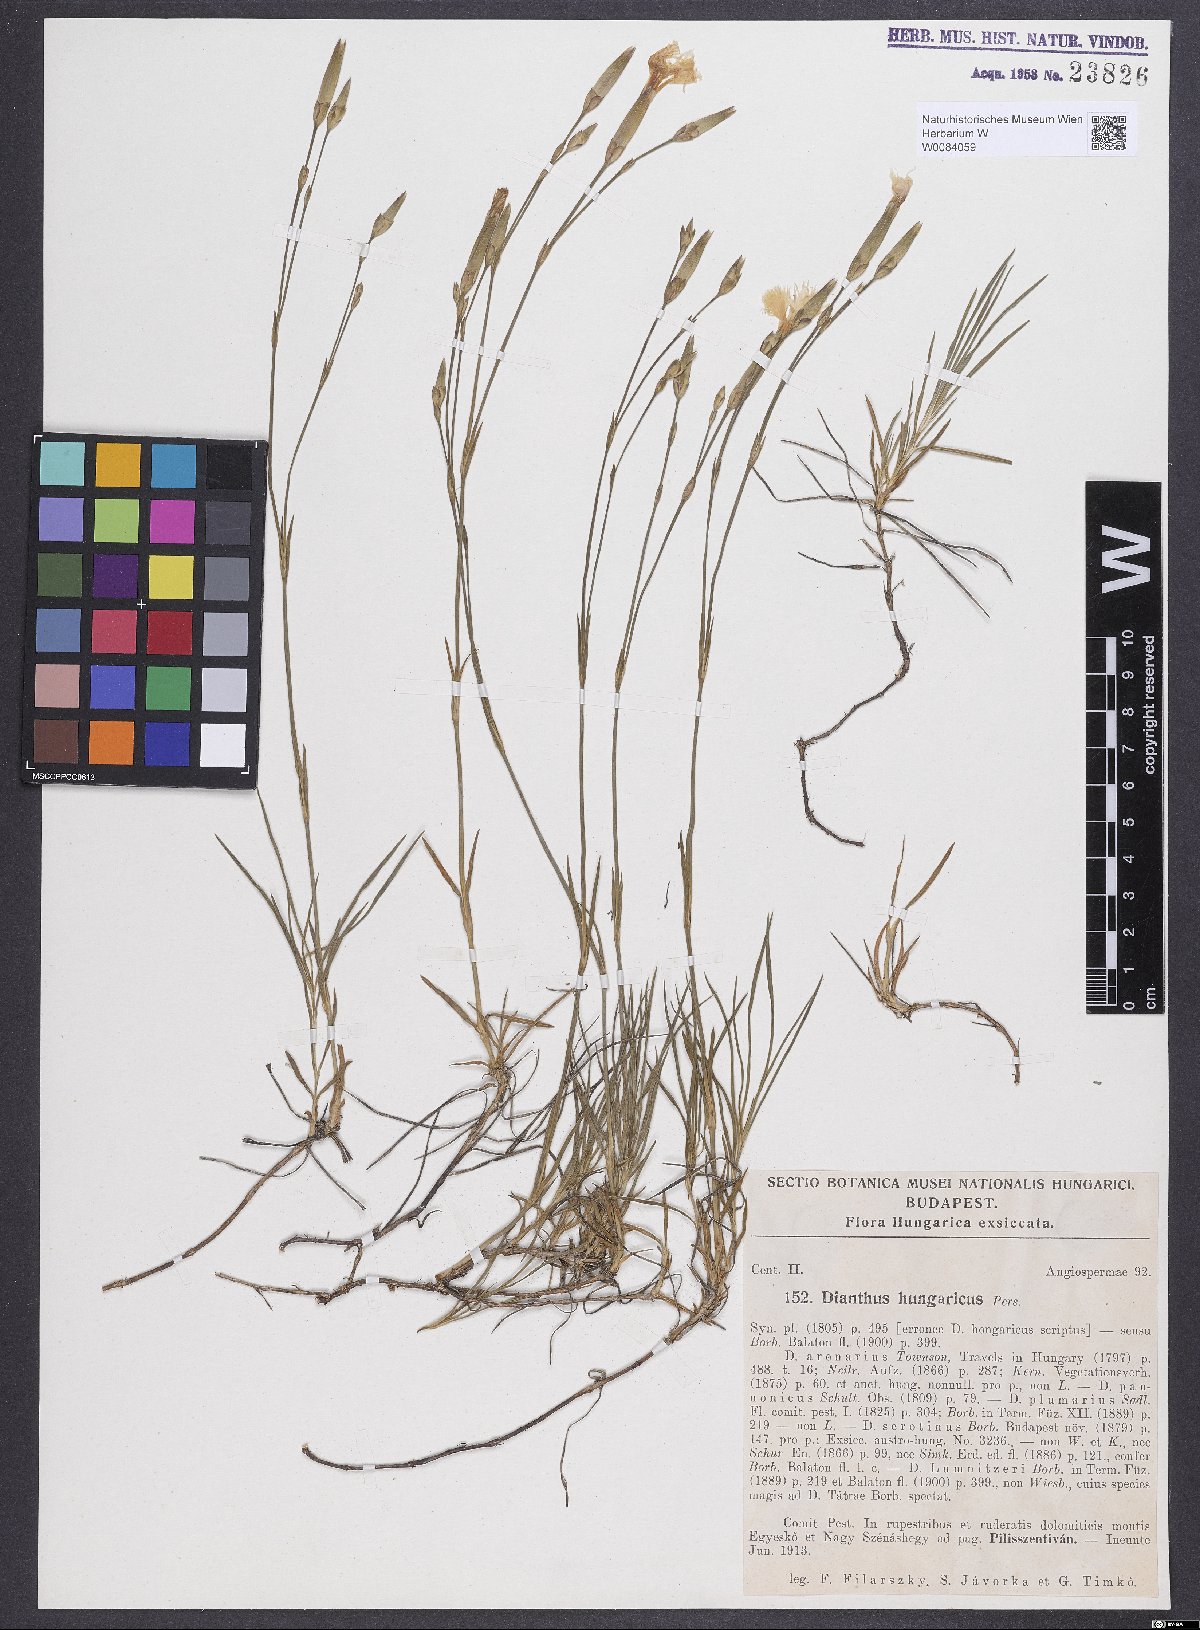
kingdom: Plantae
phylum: Tracheophyta
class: Magnoliopsida
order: Caryophyllales
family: Caryophyllaceae
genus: Dianthus
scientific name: Dianthus plumarius
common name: Pink
